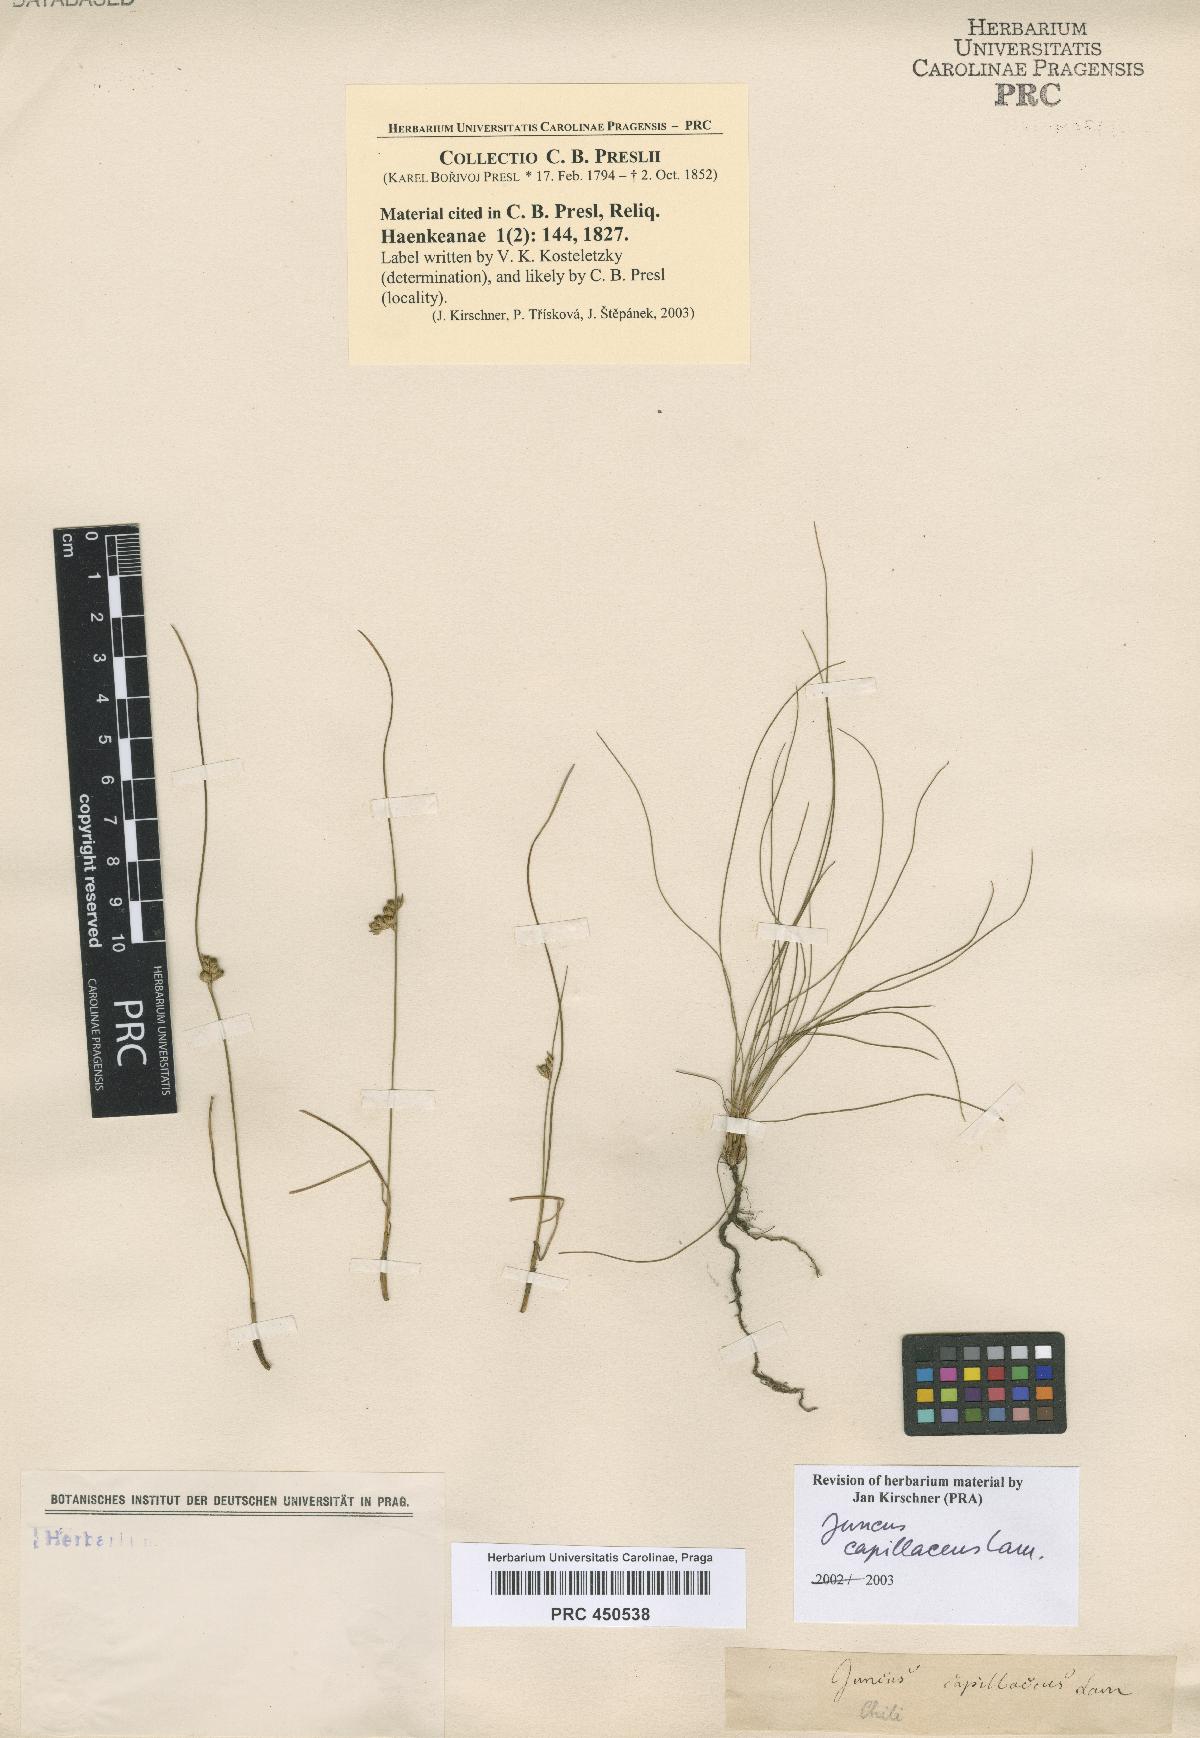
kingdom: Plantae
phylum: Tracheophyta
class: Liliopsida
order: Poales
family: Juncaceae
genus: Juncus
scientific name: Juncus capillaceus
